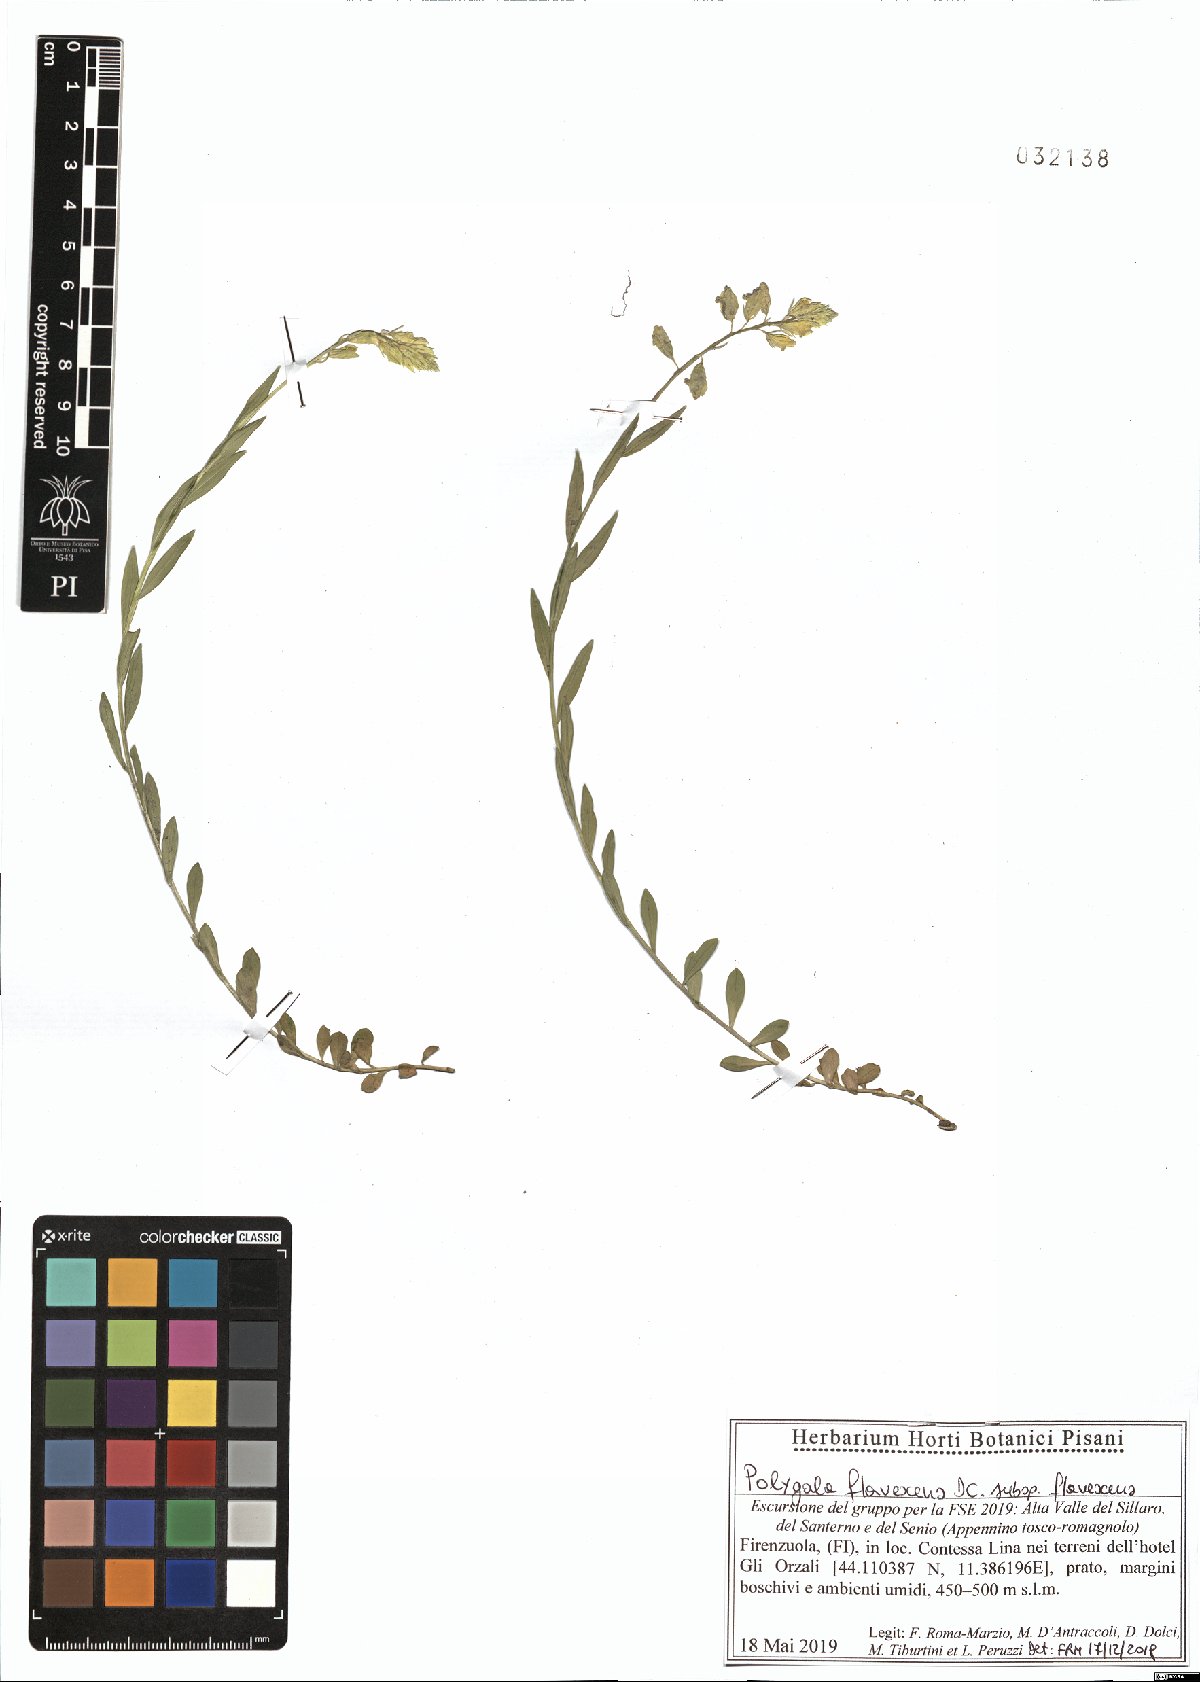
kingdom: Plantae
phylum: Tracheophyta
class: Magnoliopsida
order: Fabales
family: Polygalaceae
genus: Polygala
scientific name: Polygala flavescens
